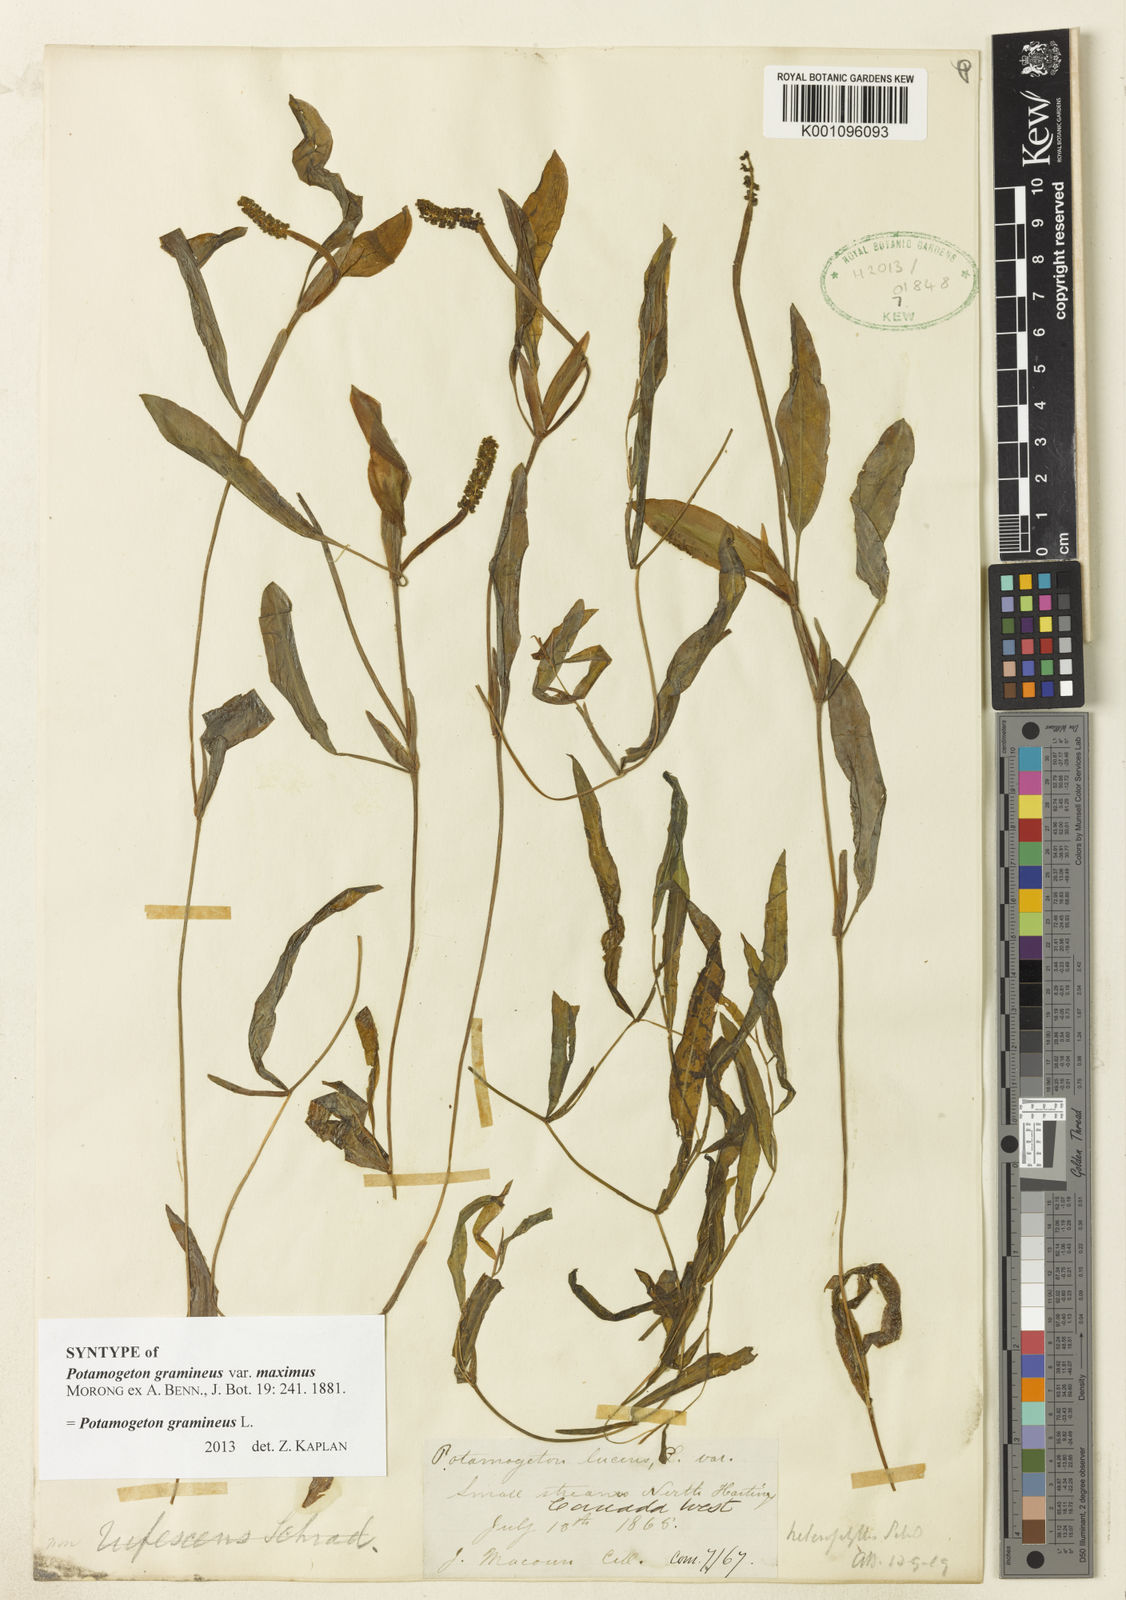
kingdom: Plantae
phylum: Tracheophyta
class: Liliopsida
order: Alismatales
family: Potamogetonaceae
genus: Potamogeton
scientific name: Potamogeton gramineus
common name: Various-leaved pondweed
